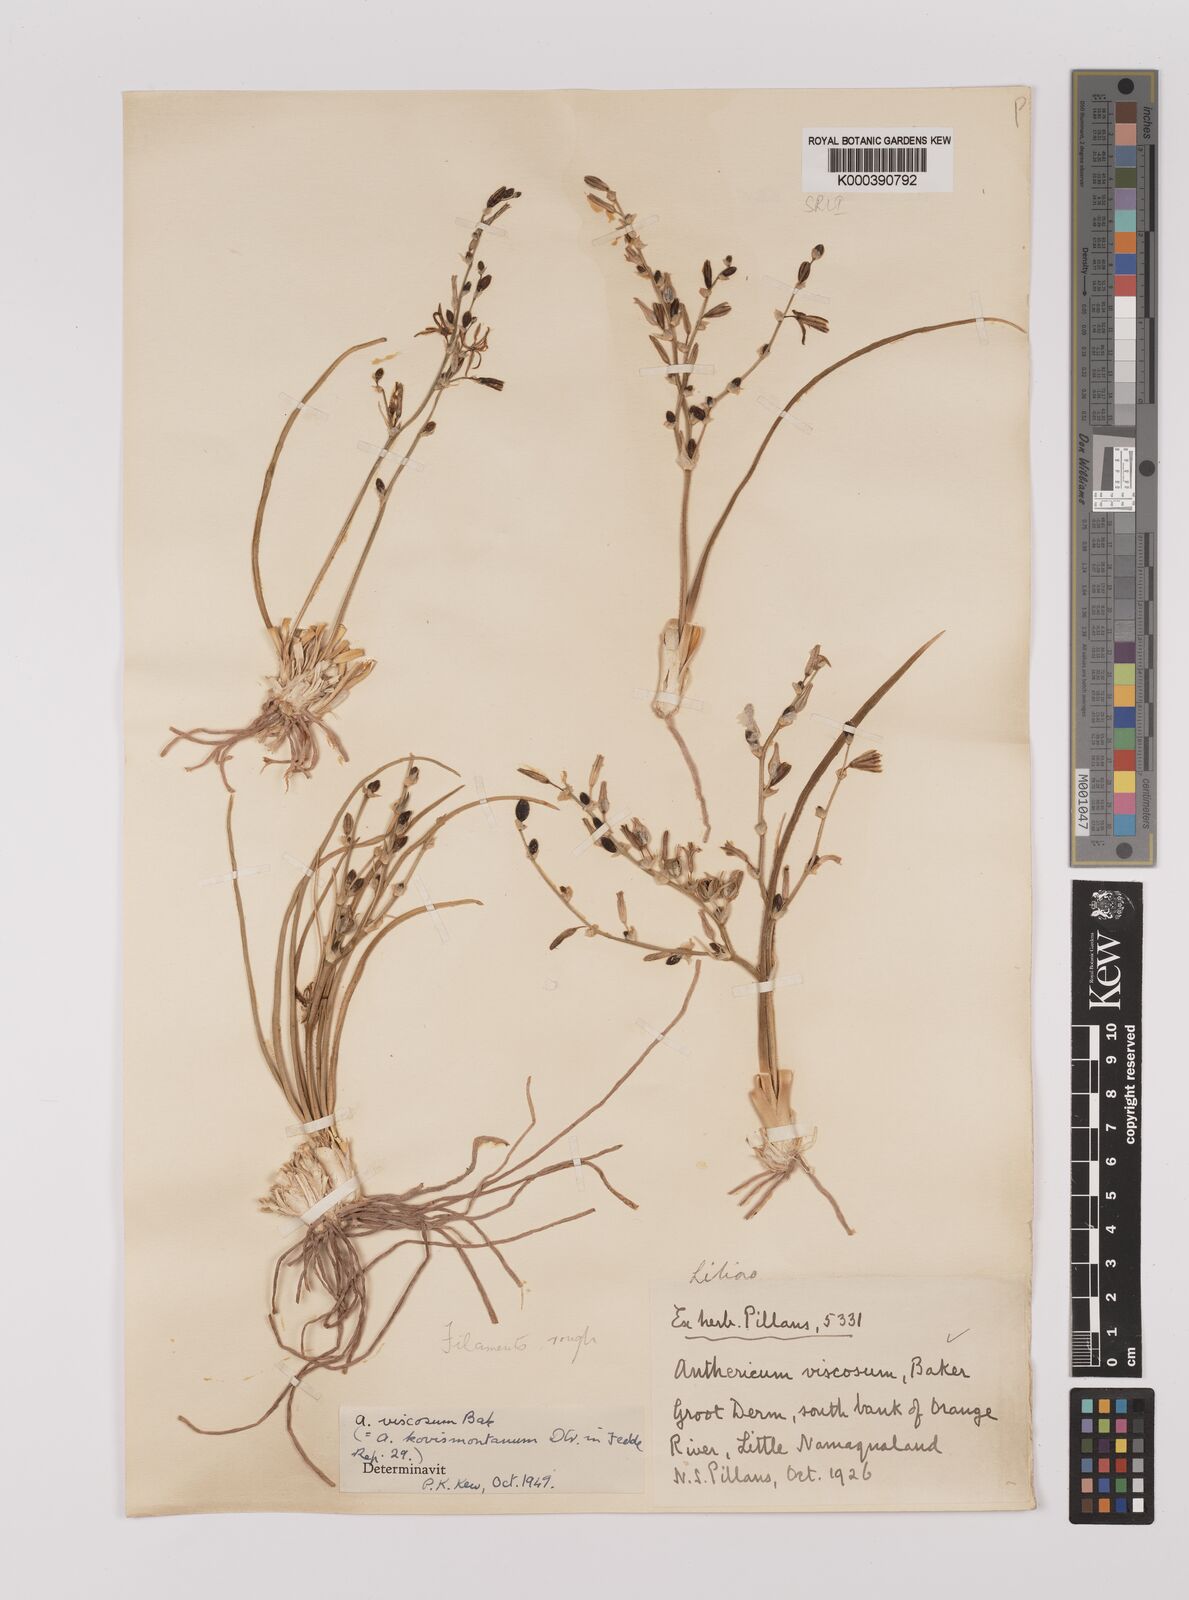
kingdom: Plantae
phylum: Tracheophyta
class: Liliopsida
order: Asparagales
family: Asparagaceae
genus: Chlorophytum
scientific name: Chlorophytum viscosum
